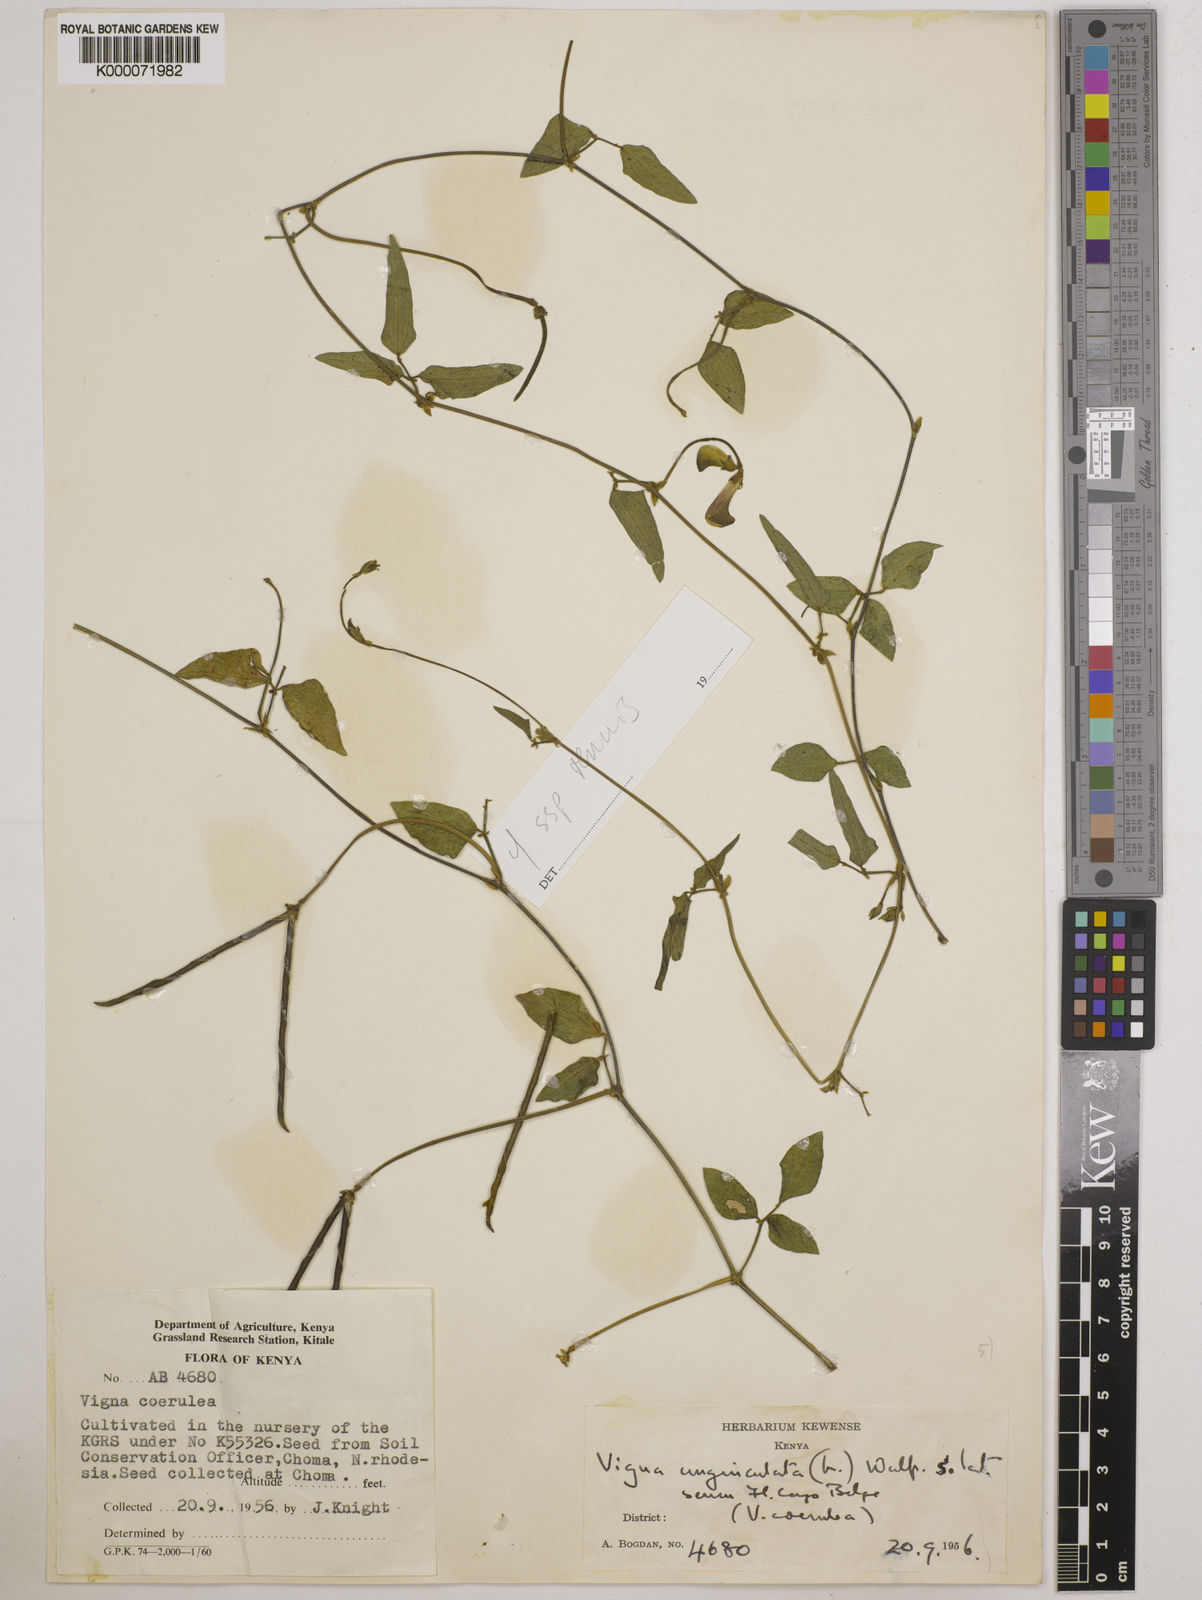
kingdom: Plantae
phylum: Tracheophyta
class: Magnoliopsida
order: Fabales
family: Fabaceae
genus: Vigna
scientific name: Vigna unguiculata
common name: Cowpea
